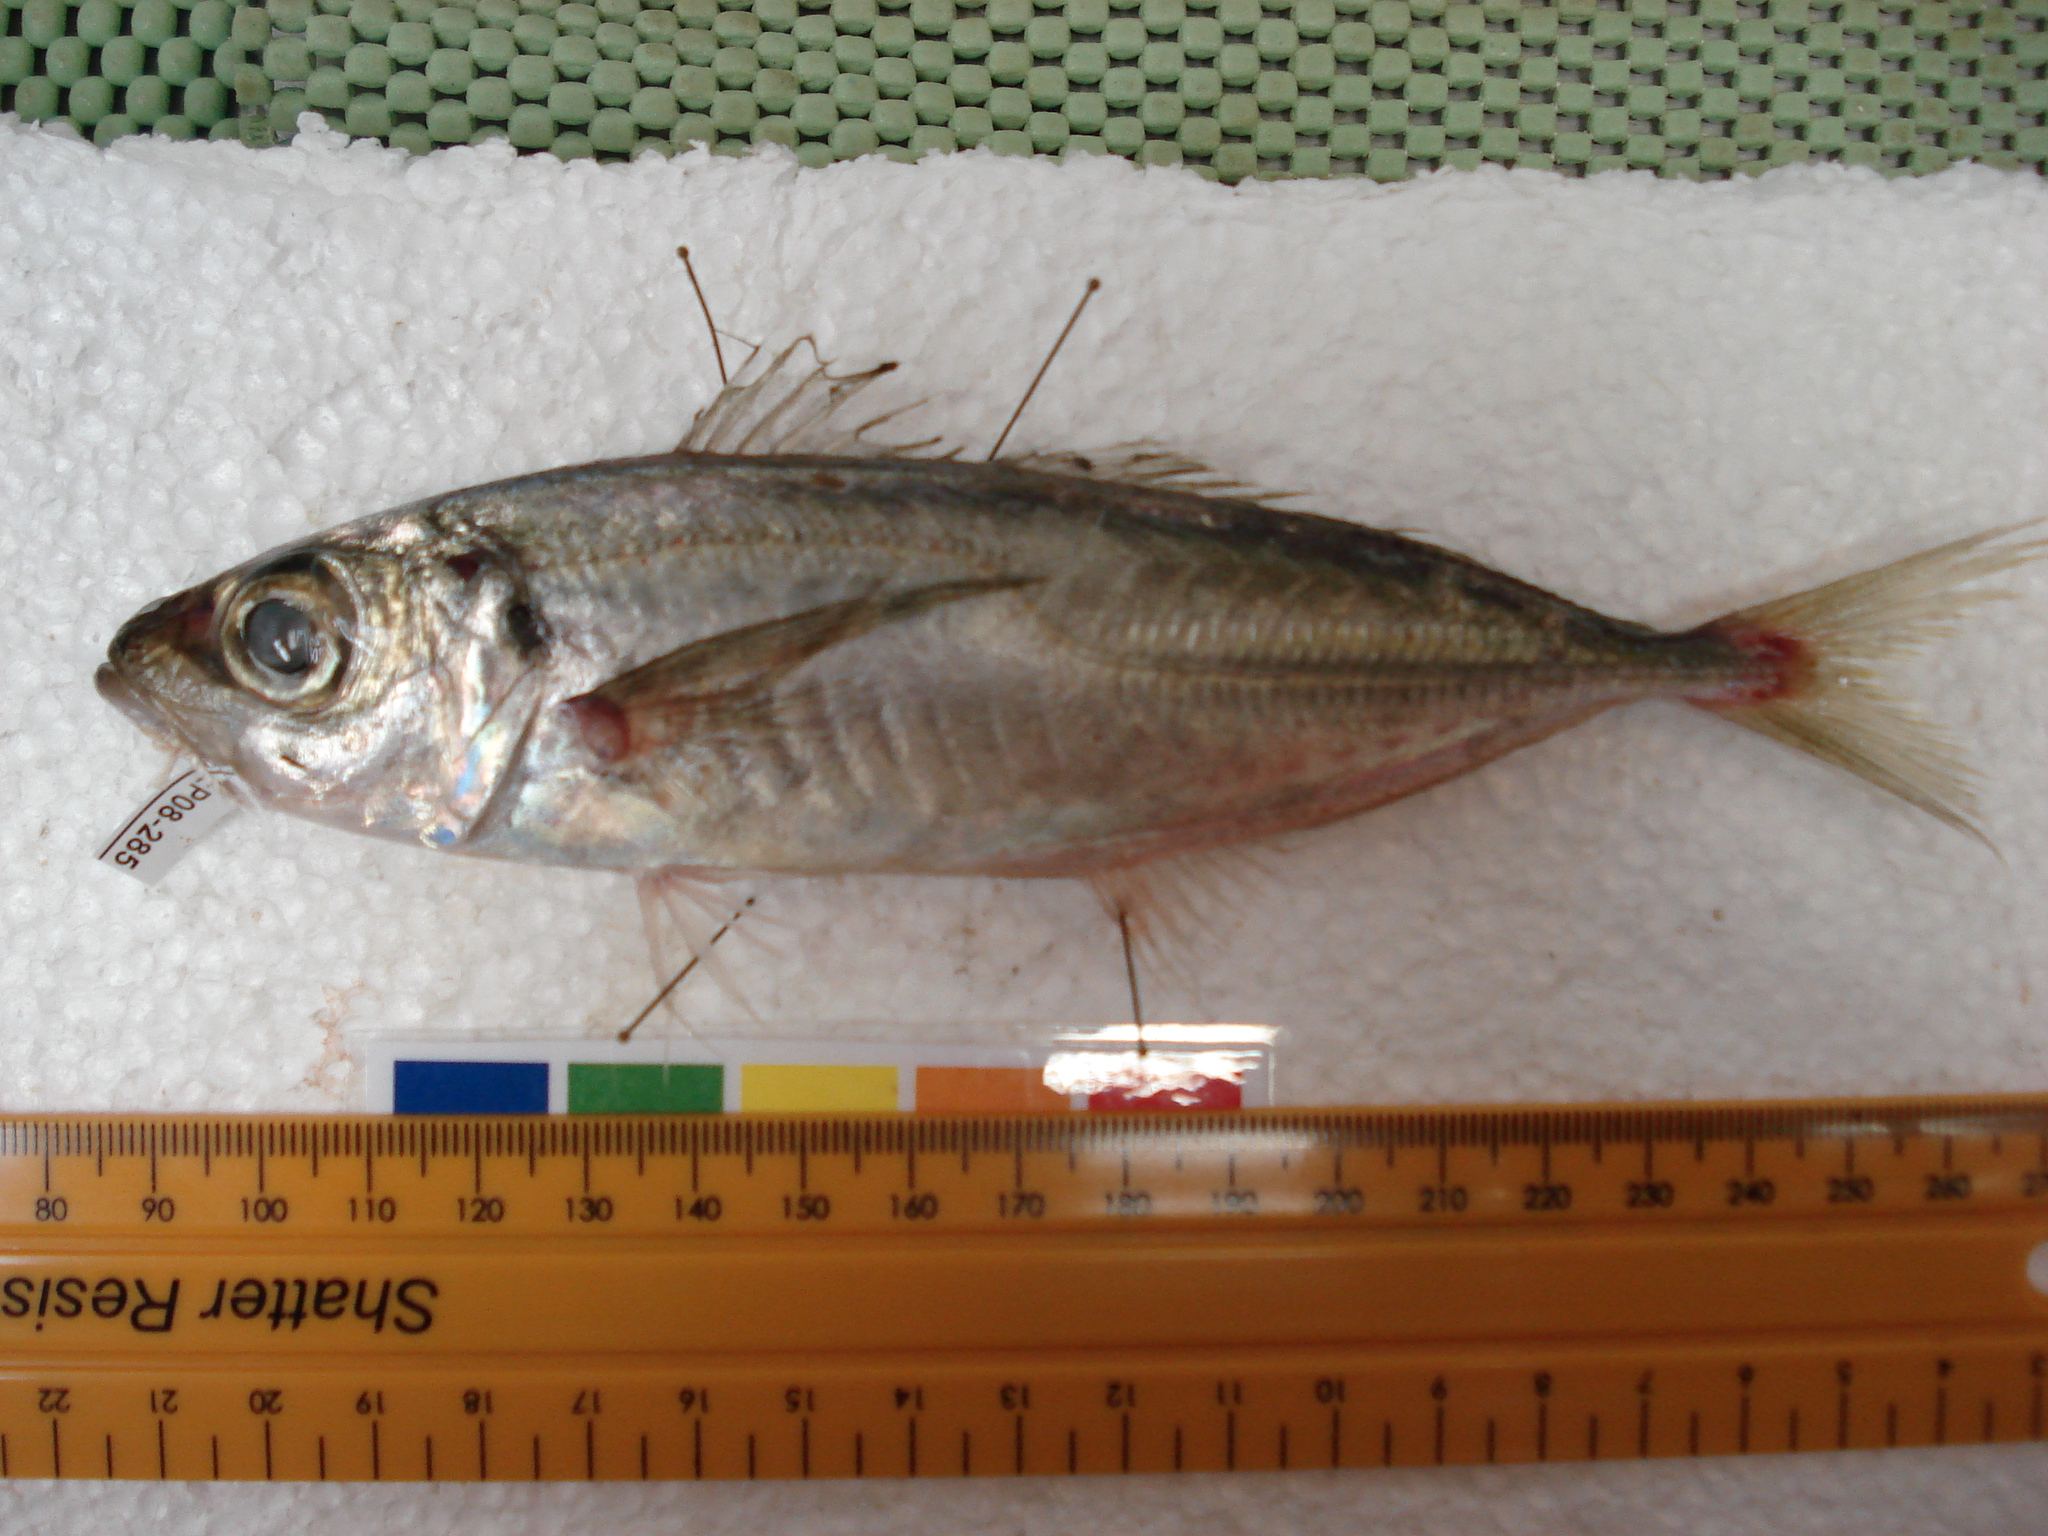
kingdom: Animalia
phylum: Chordata
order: Perciformes
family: Carangidae
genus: Trachurus
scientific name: Trachurus trachurus
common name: Horse mackerel
